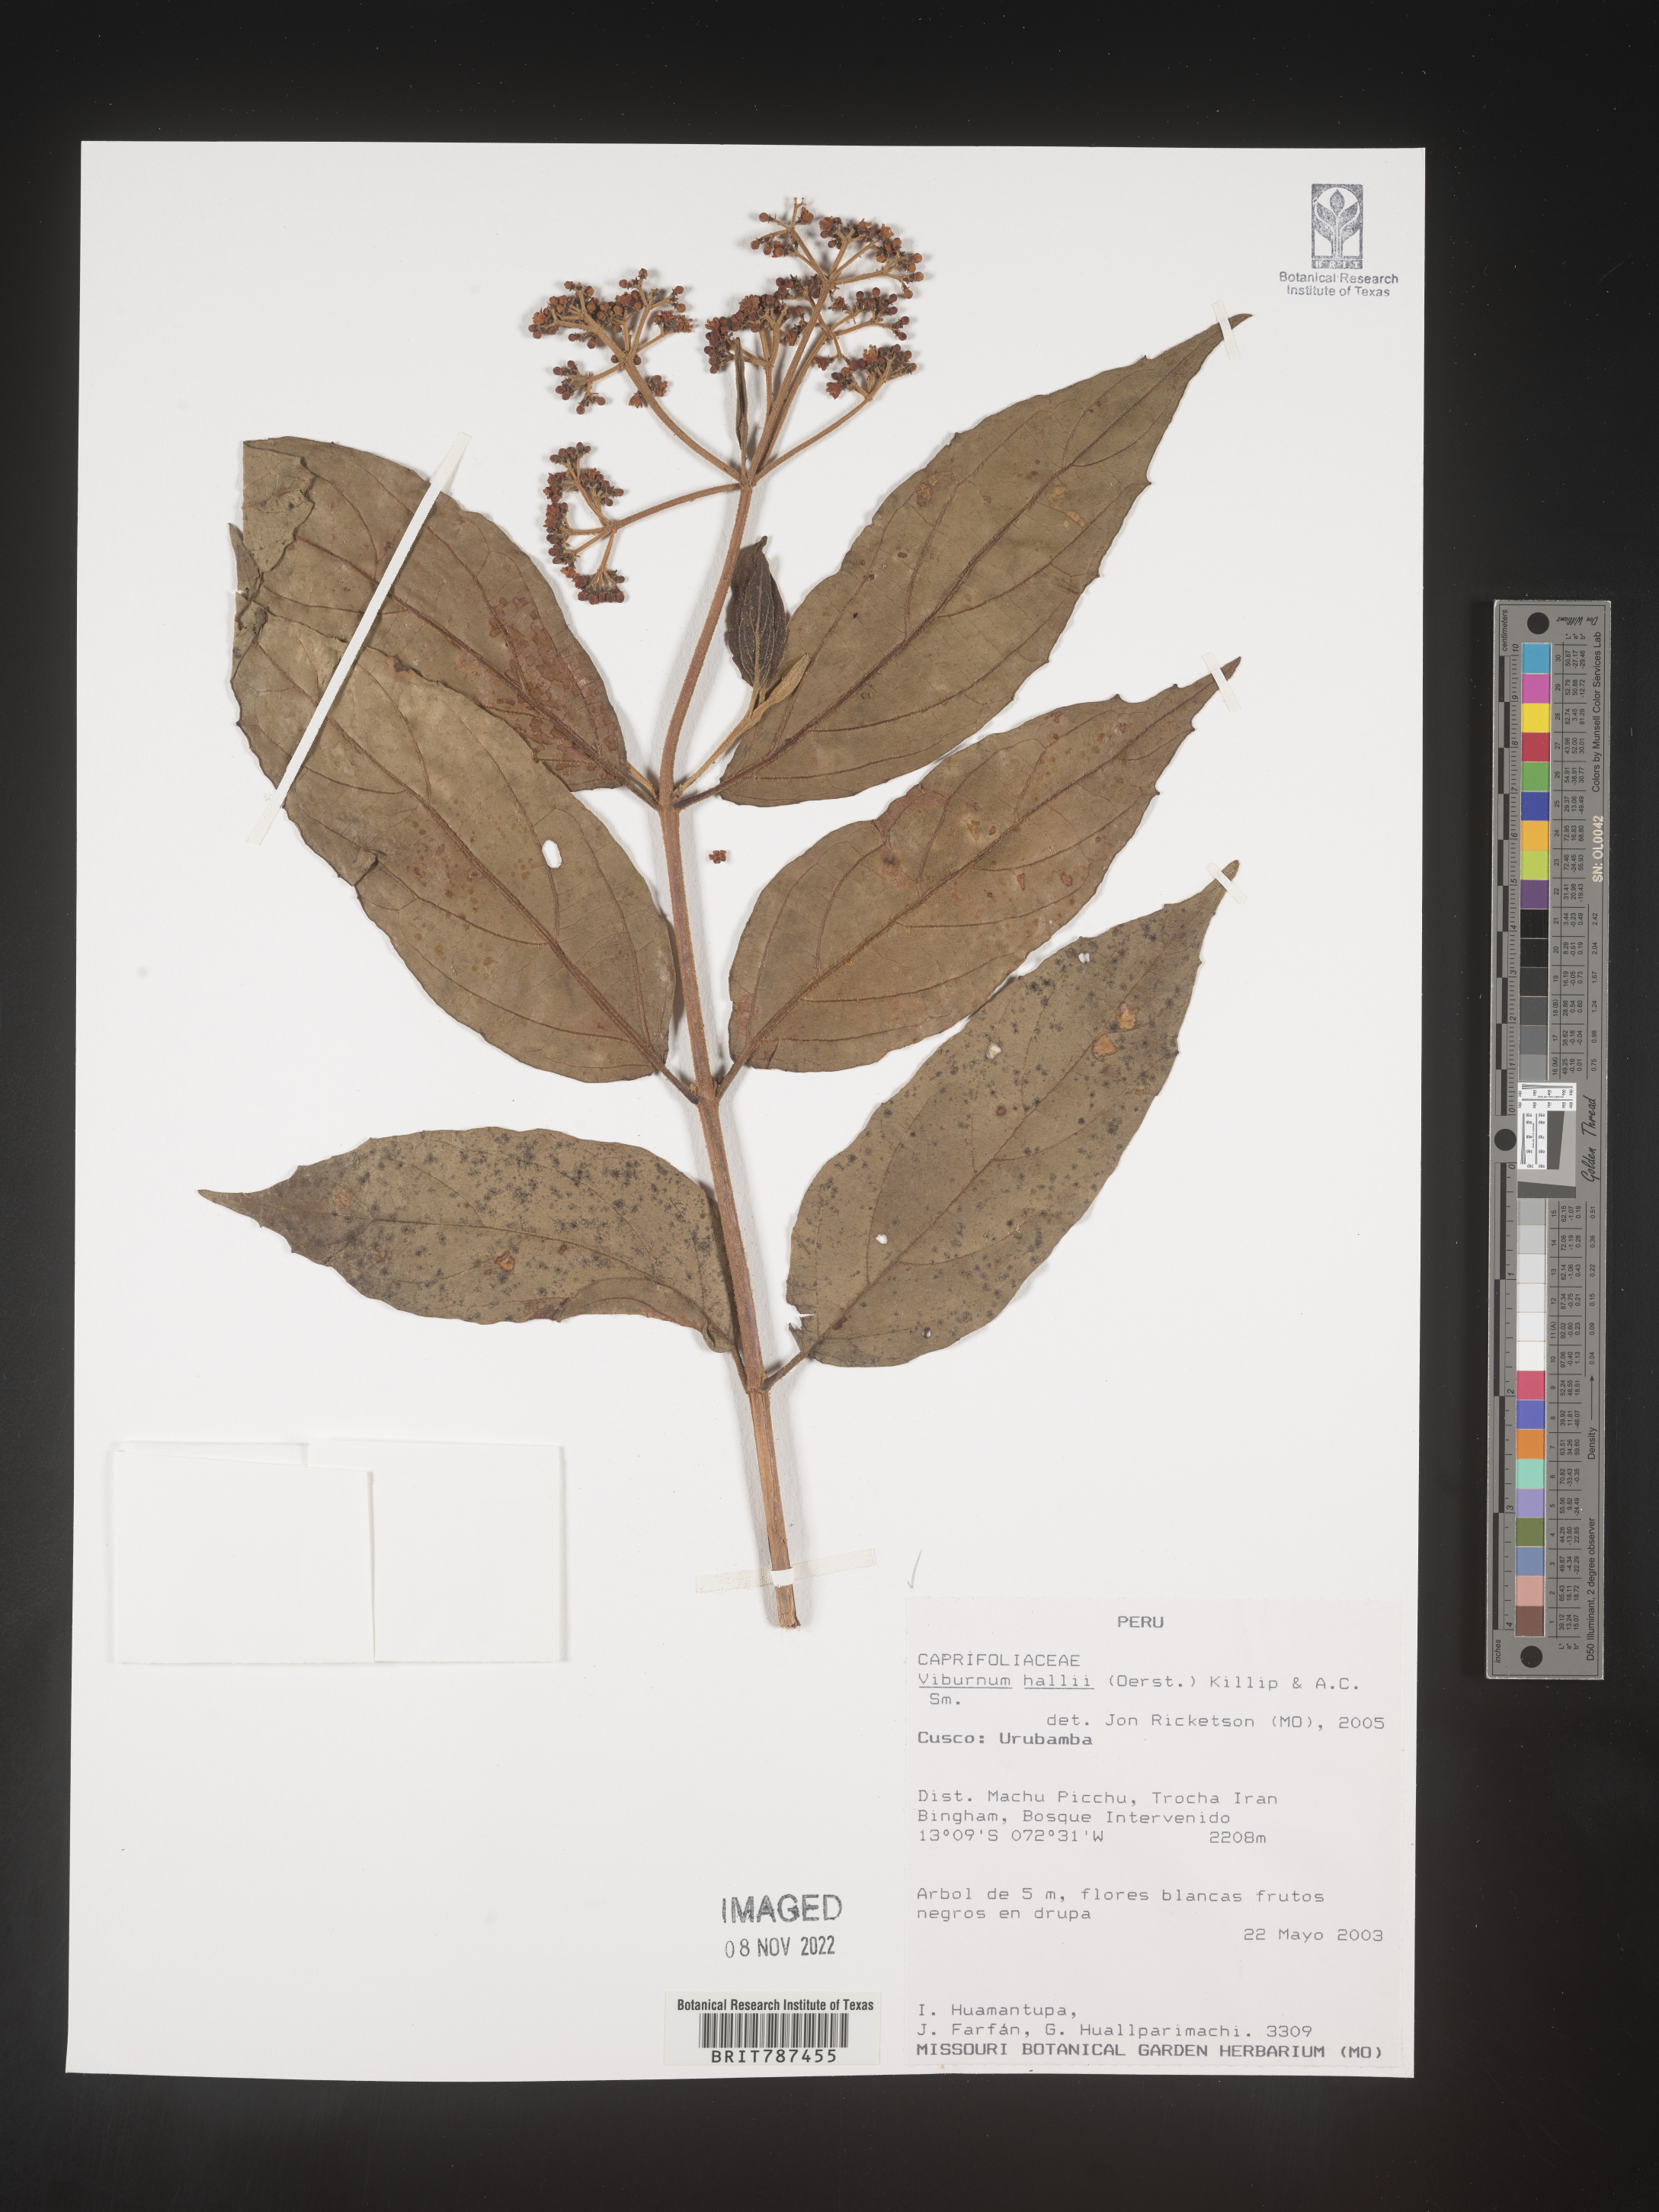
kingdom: Plantae
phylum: Tracheophyta
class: Magnoliopsida
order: Dipsacales
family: Viburnaceae
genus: Viburnum
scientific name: Viburnum
